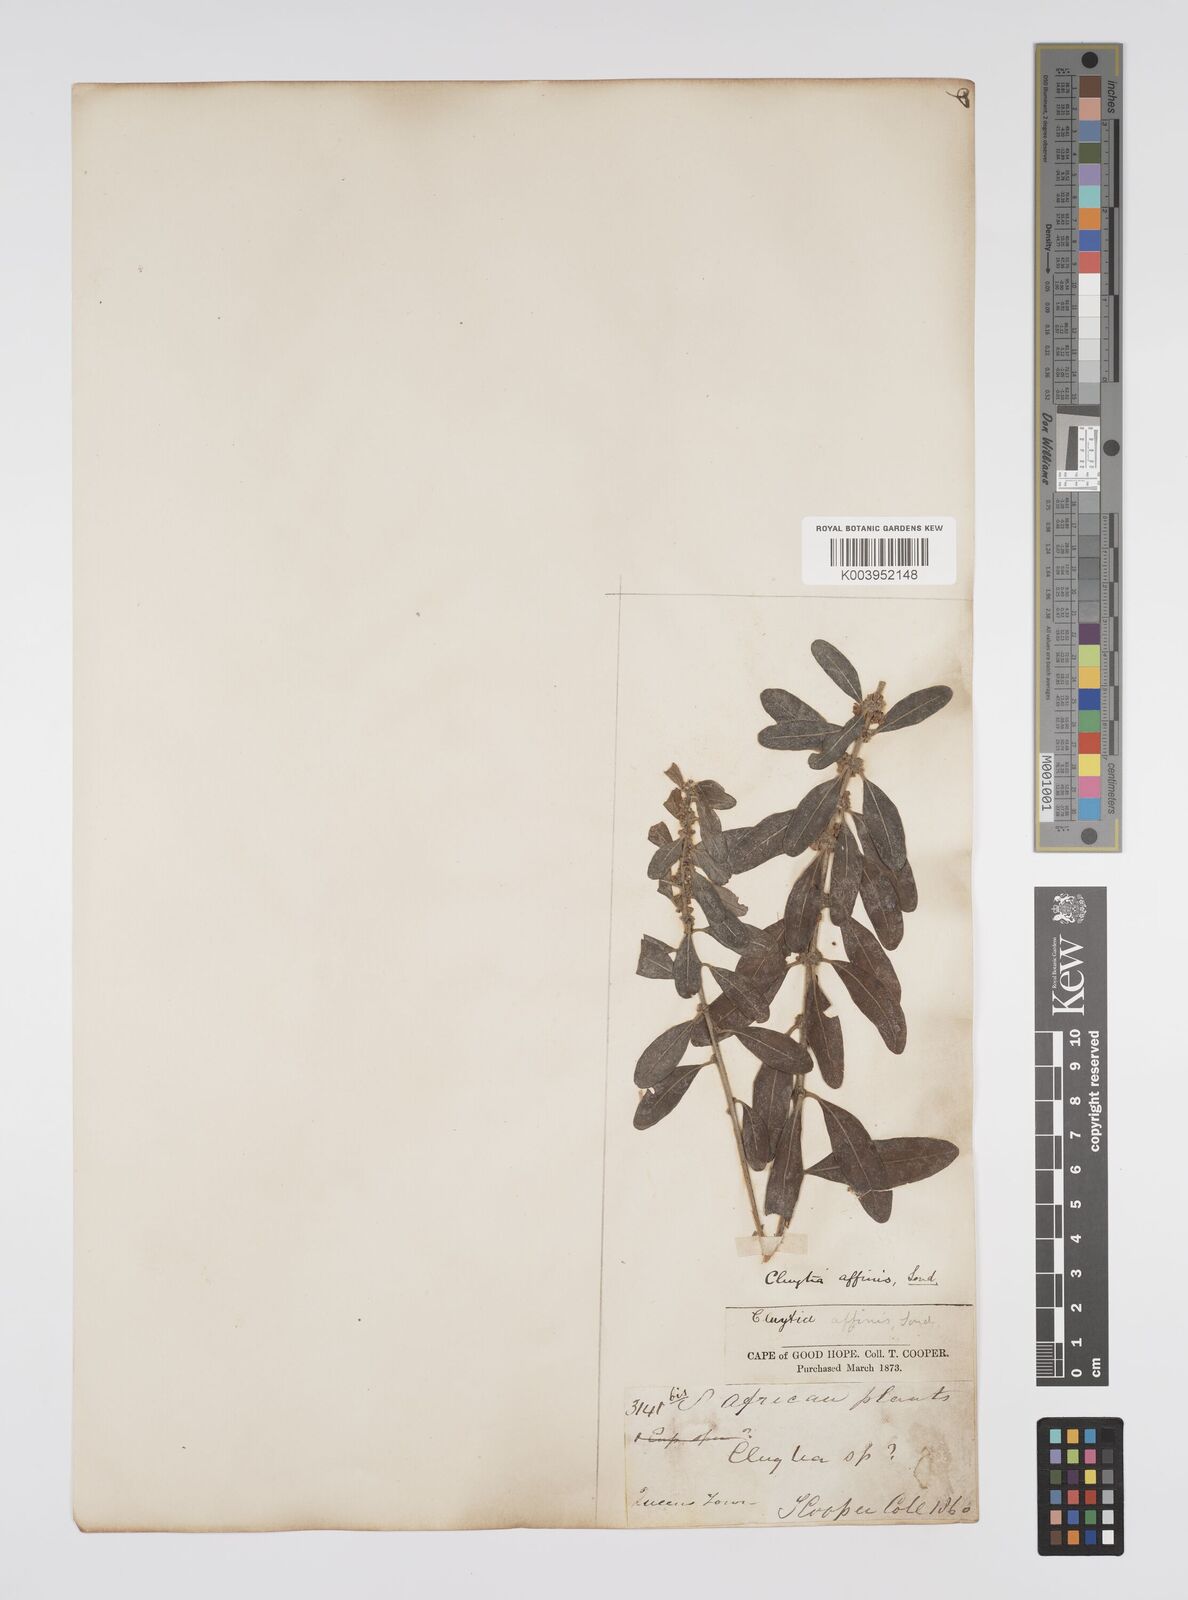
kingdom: Plantae
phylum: Tracheophyta
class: Magnoliopsida
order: Malpighiales
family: Peraceae
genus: Clutia
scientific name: Clutia affinis
